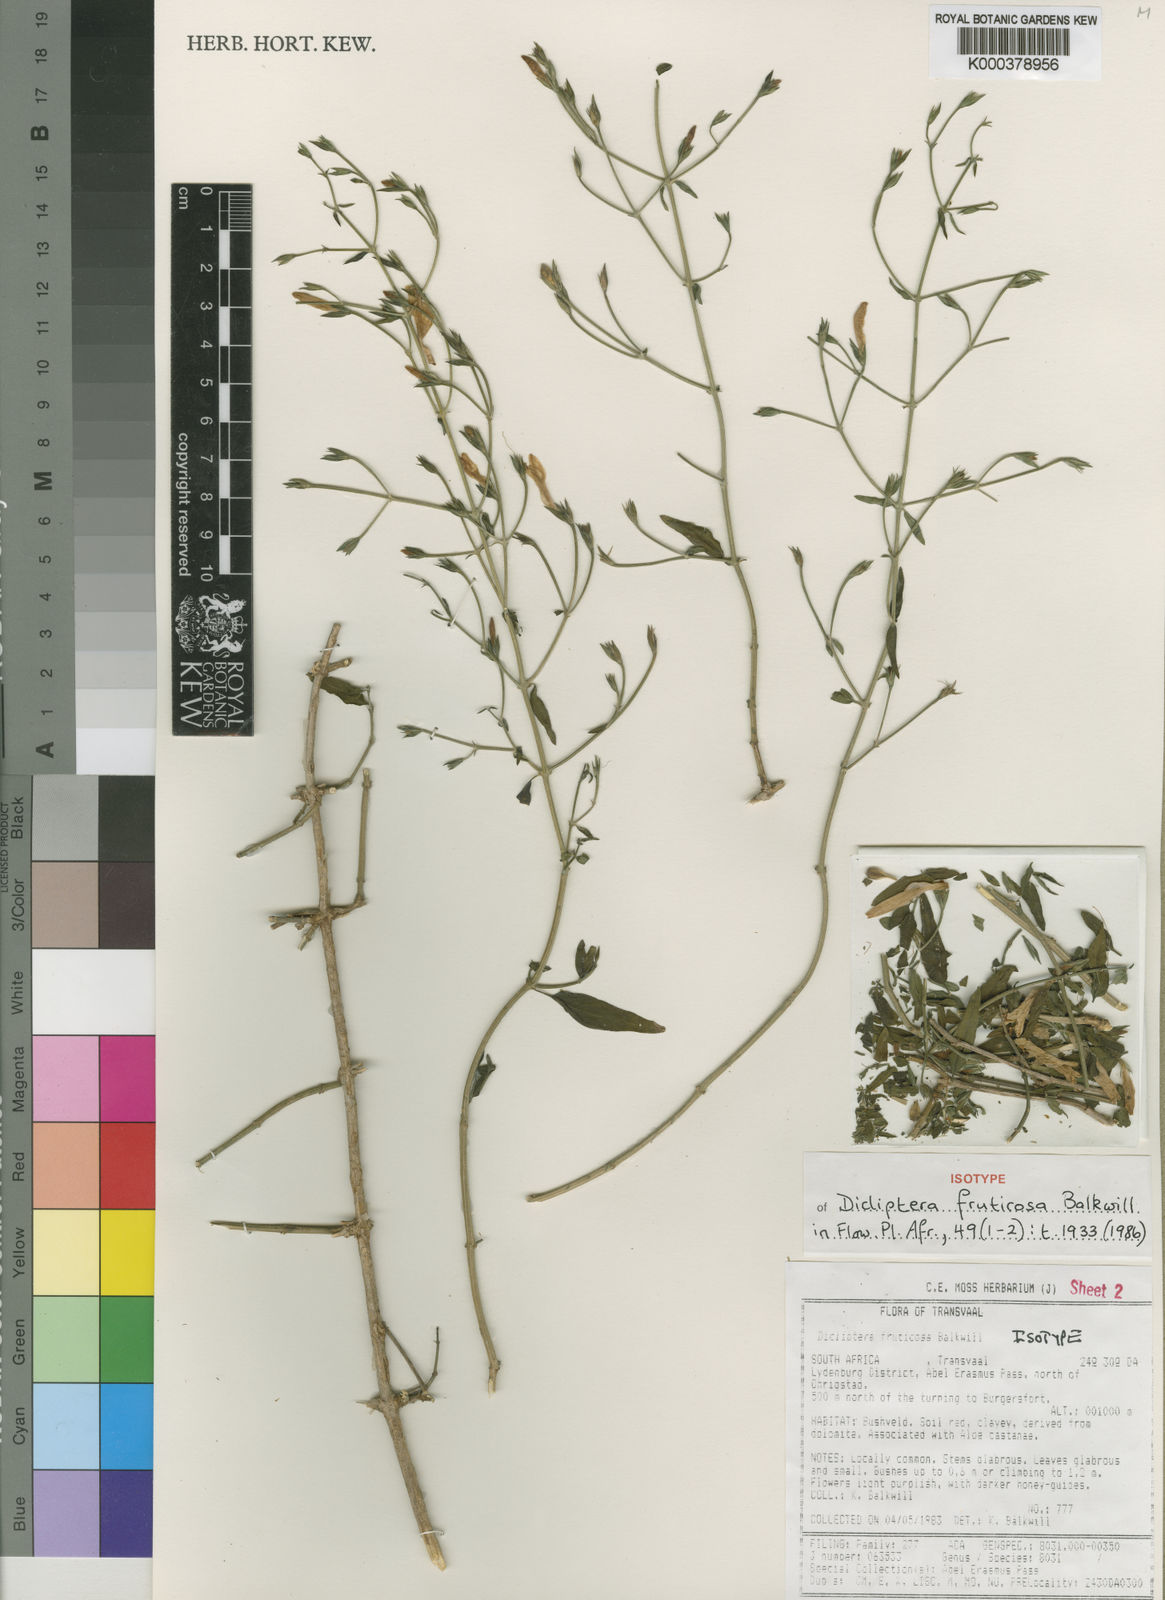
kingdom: Plantae
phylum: Tracheophyta
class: Magnoliopsida
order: Lamiales
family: Acanthaceae
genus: Dicliptera
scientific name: Dicliptera fruticosa
